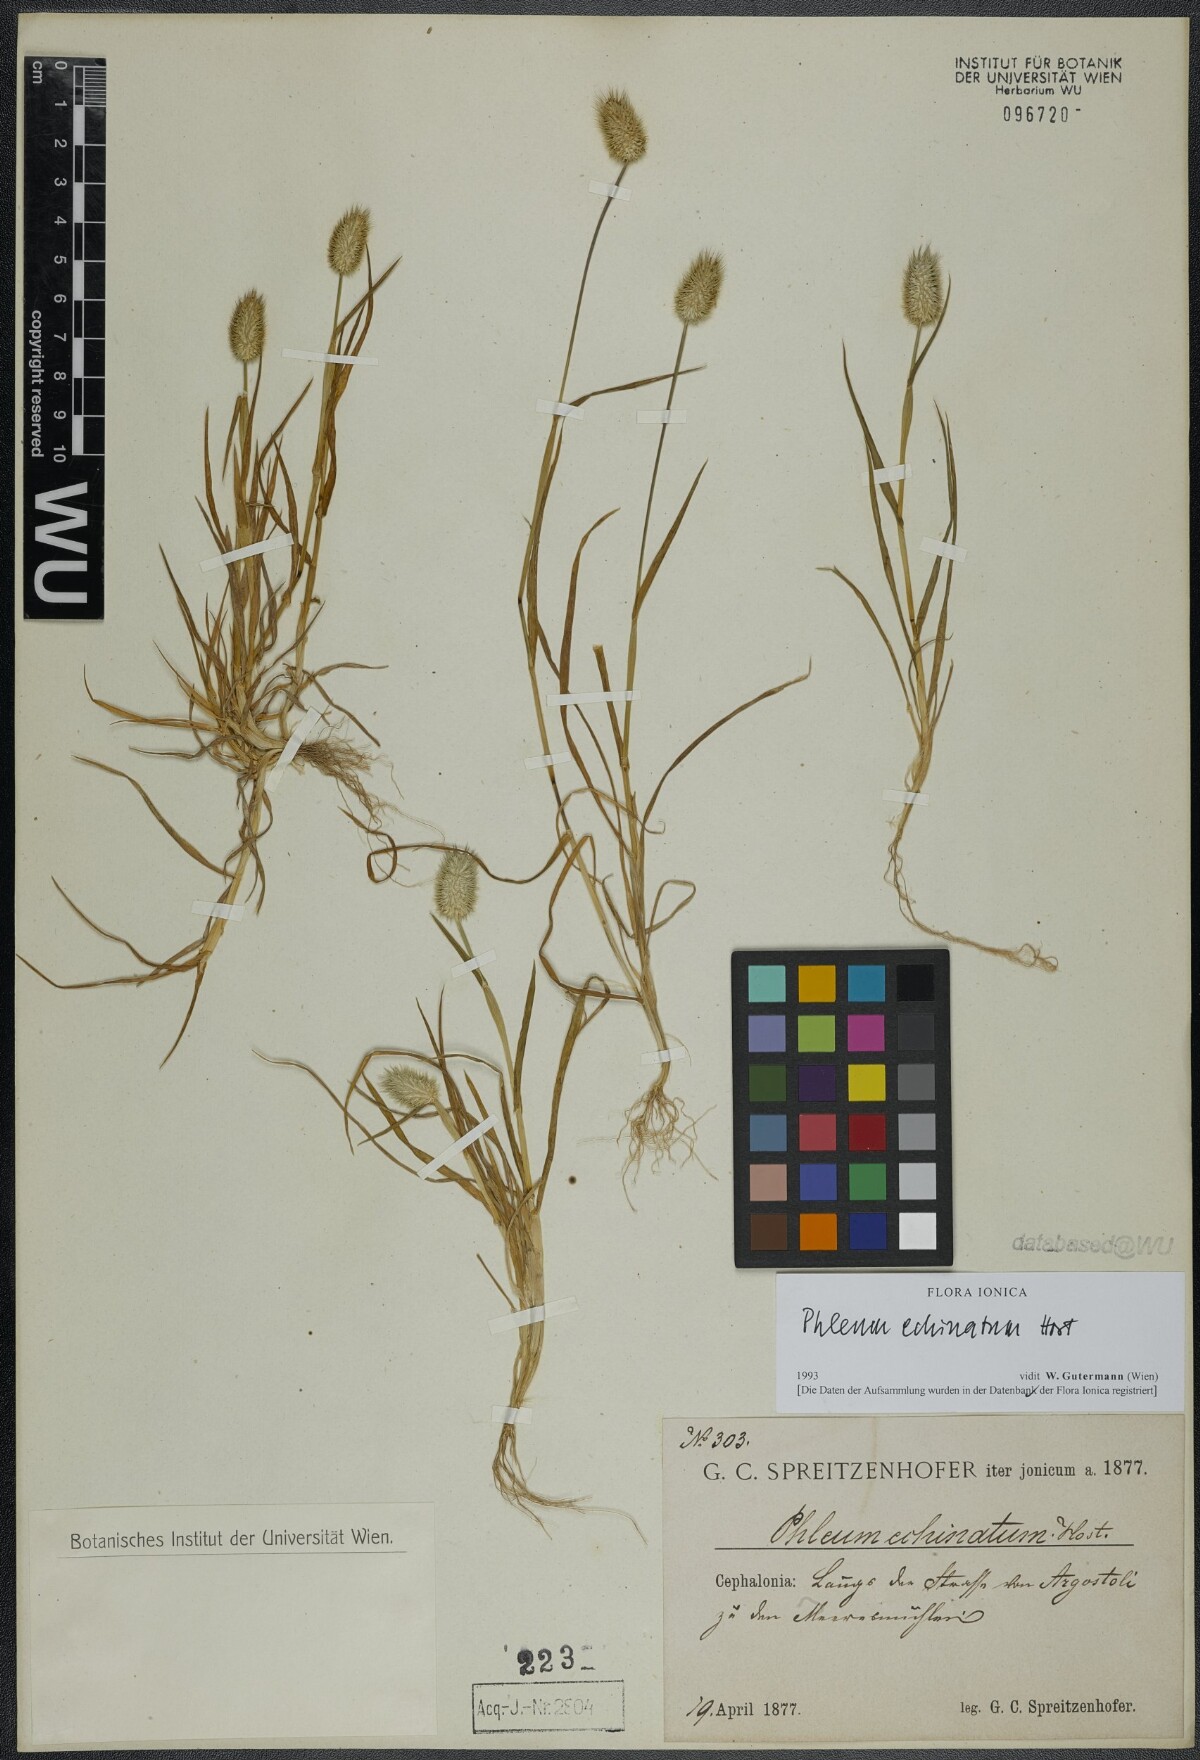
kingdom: Plantae
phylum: Tracheophyta
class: Liliopsida
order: Poales
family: Poaceae
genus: Phleum
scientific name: Phleum echinatum
